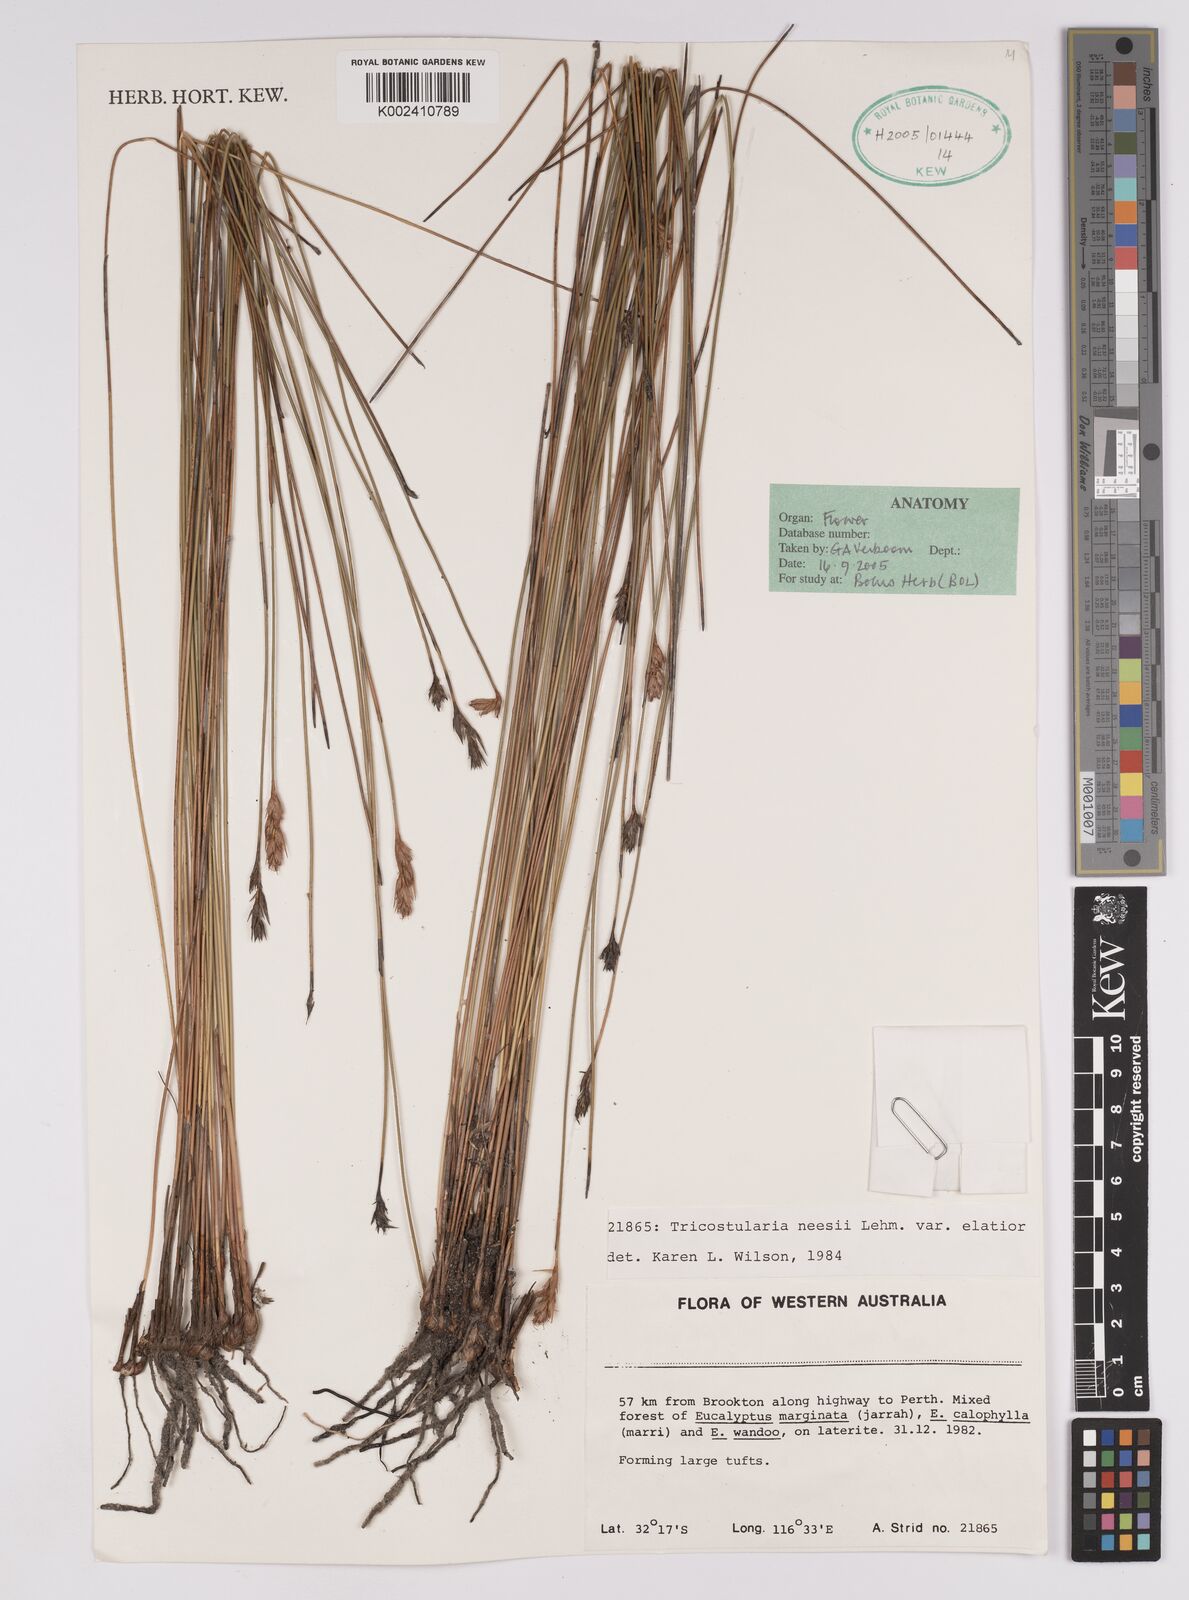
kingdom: Plantae
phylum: Tracheophyta
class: Liliopsida
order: Poales
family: Cyperaceae
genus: Tricostularia
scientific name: Tricostularia neesii
